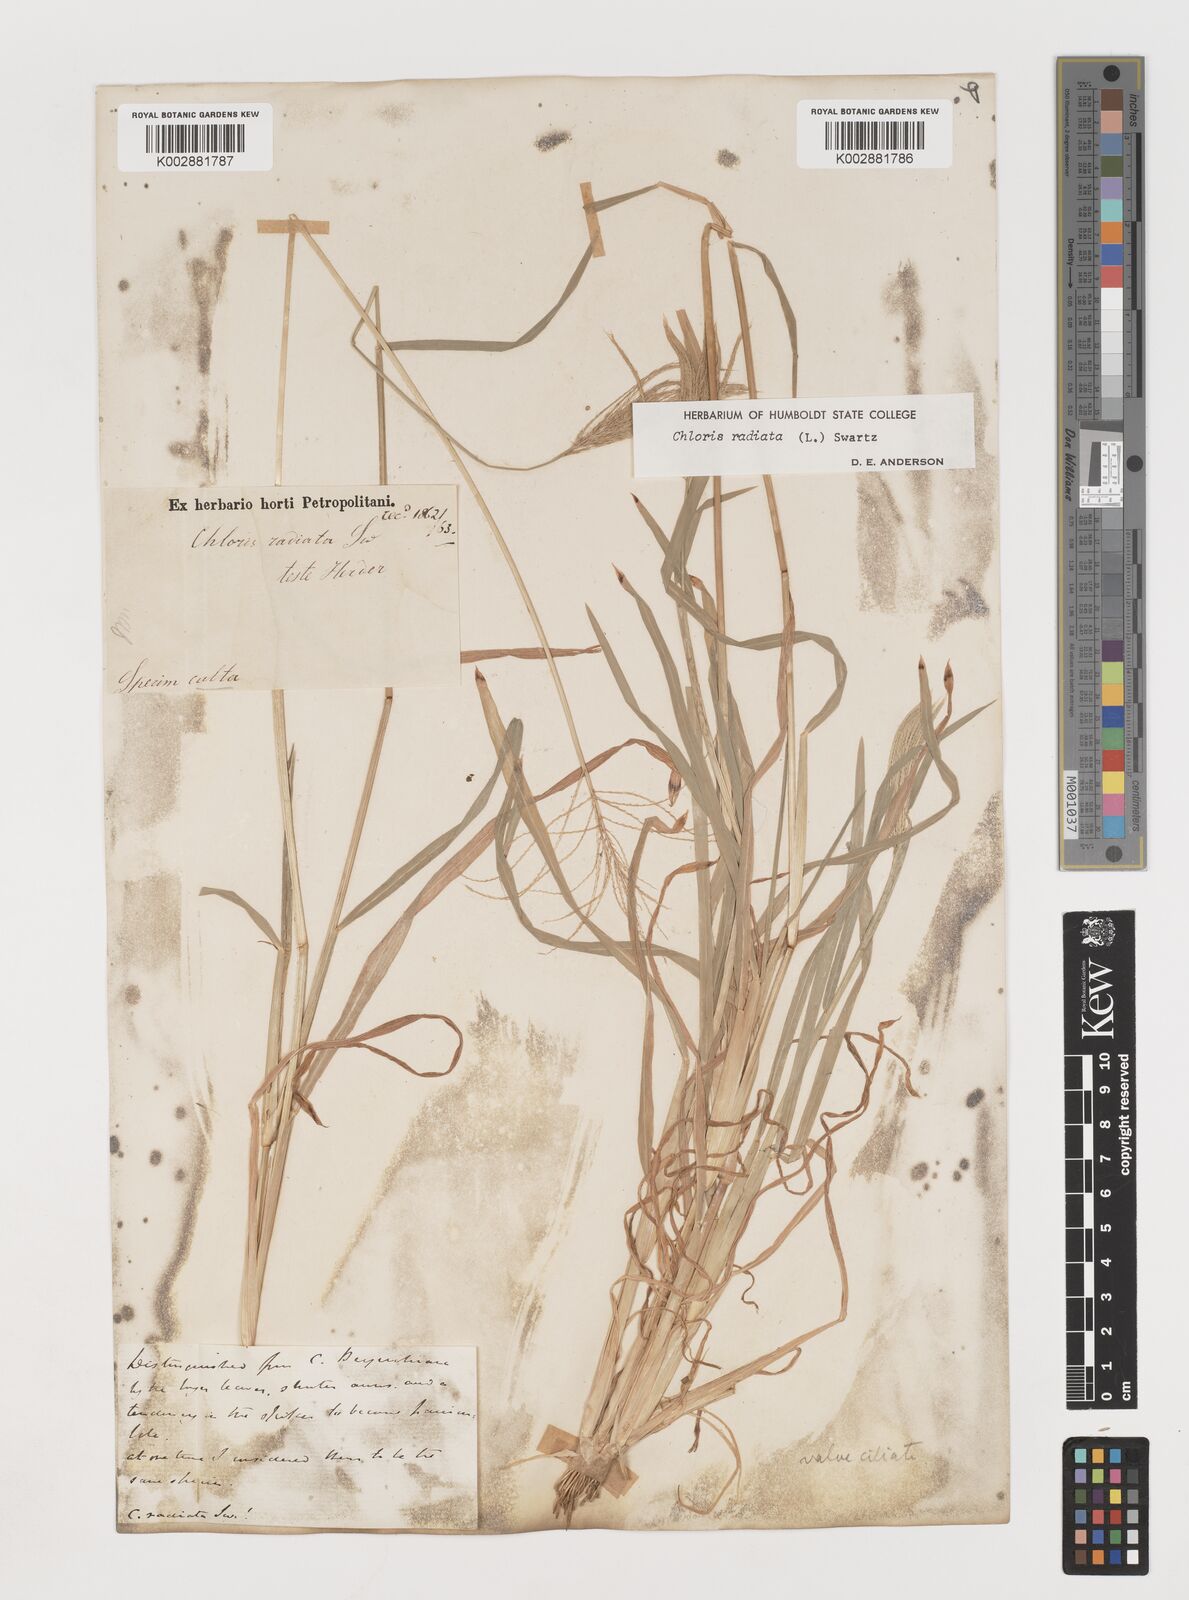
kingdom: Plantae
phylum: Tracheophyta
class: Liliopsida
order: Poales
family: Poaceae
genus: Chloris
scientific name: Chloris radiata
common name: Radiate fingergrass
